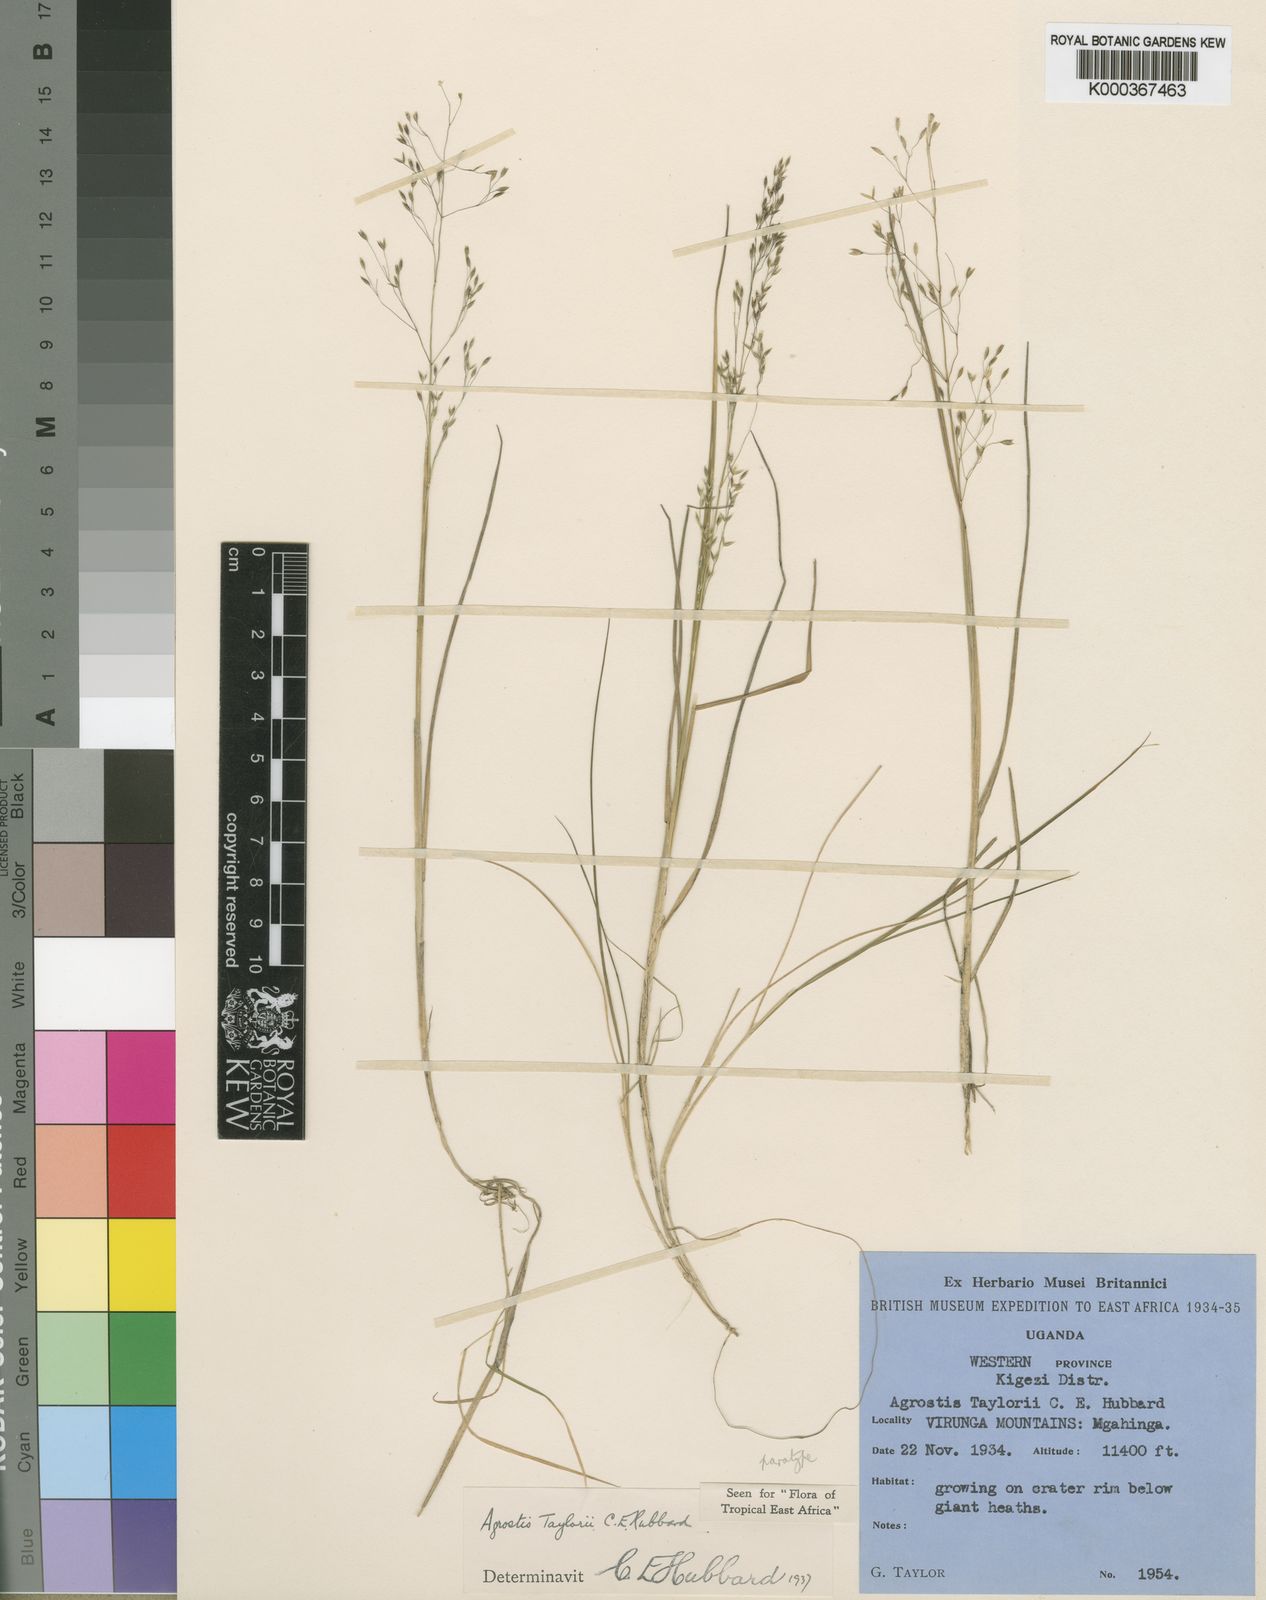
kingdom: Plantae
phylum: Tracheophyta
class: Liliopsida
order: Poales
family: Poaceae
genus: Agrostis
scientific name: Agrostis taylorii
